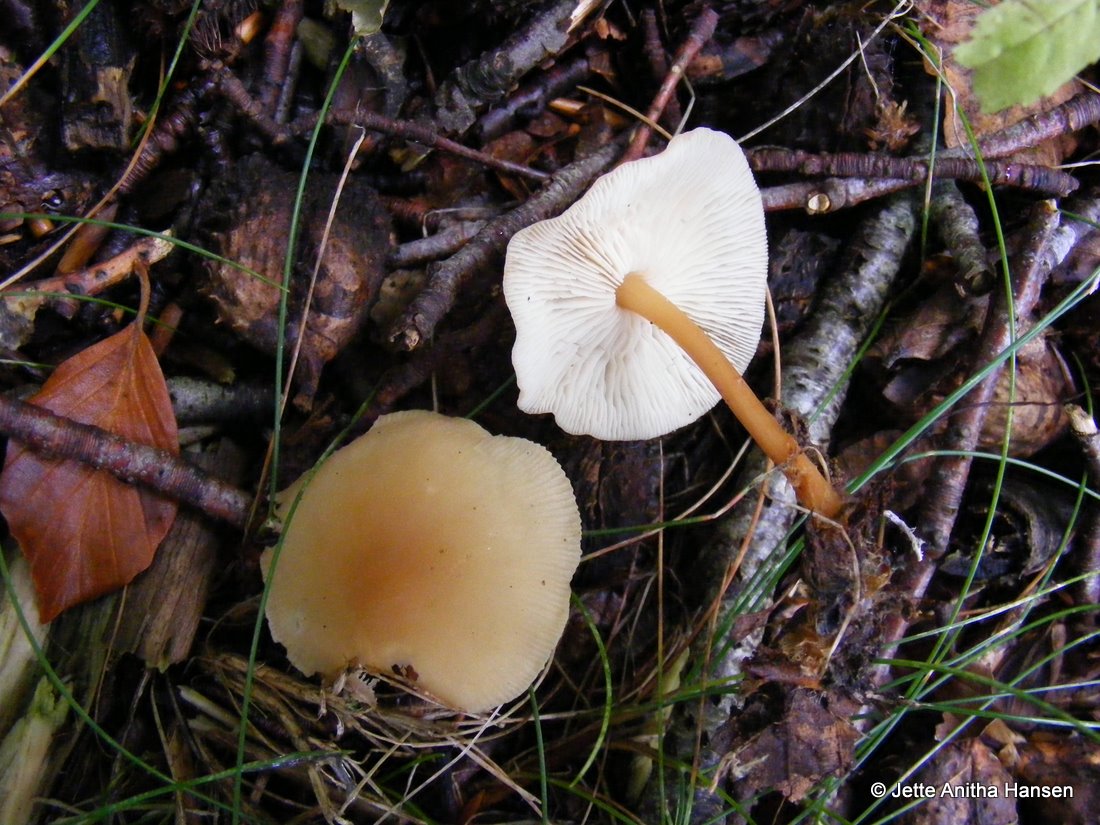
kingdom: Fungi
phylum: Basidiomycota
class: Agaricomycetes
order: Agaricales
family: Omphalotaceae
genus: Gymnopus
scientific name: Gymnopus dryophilus
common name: løv-fladhat
